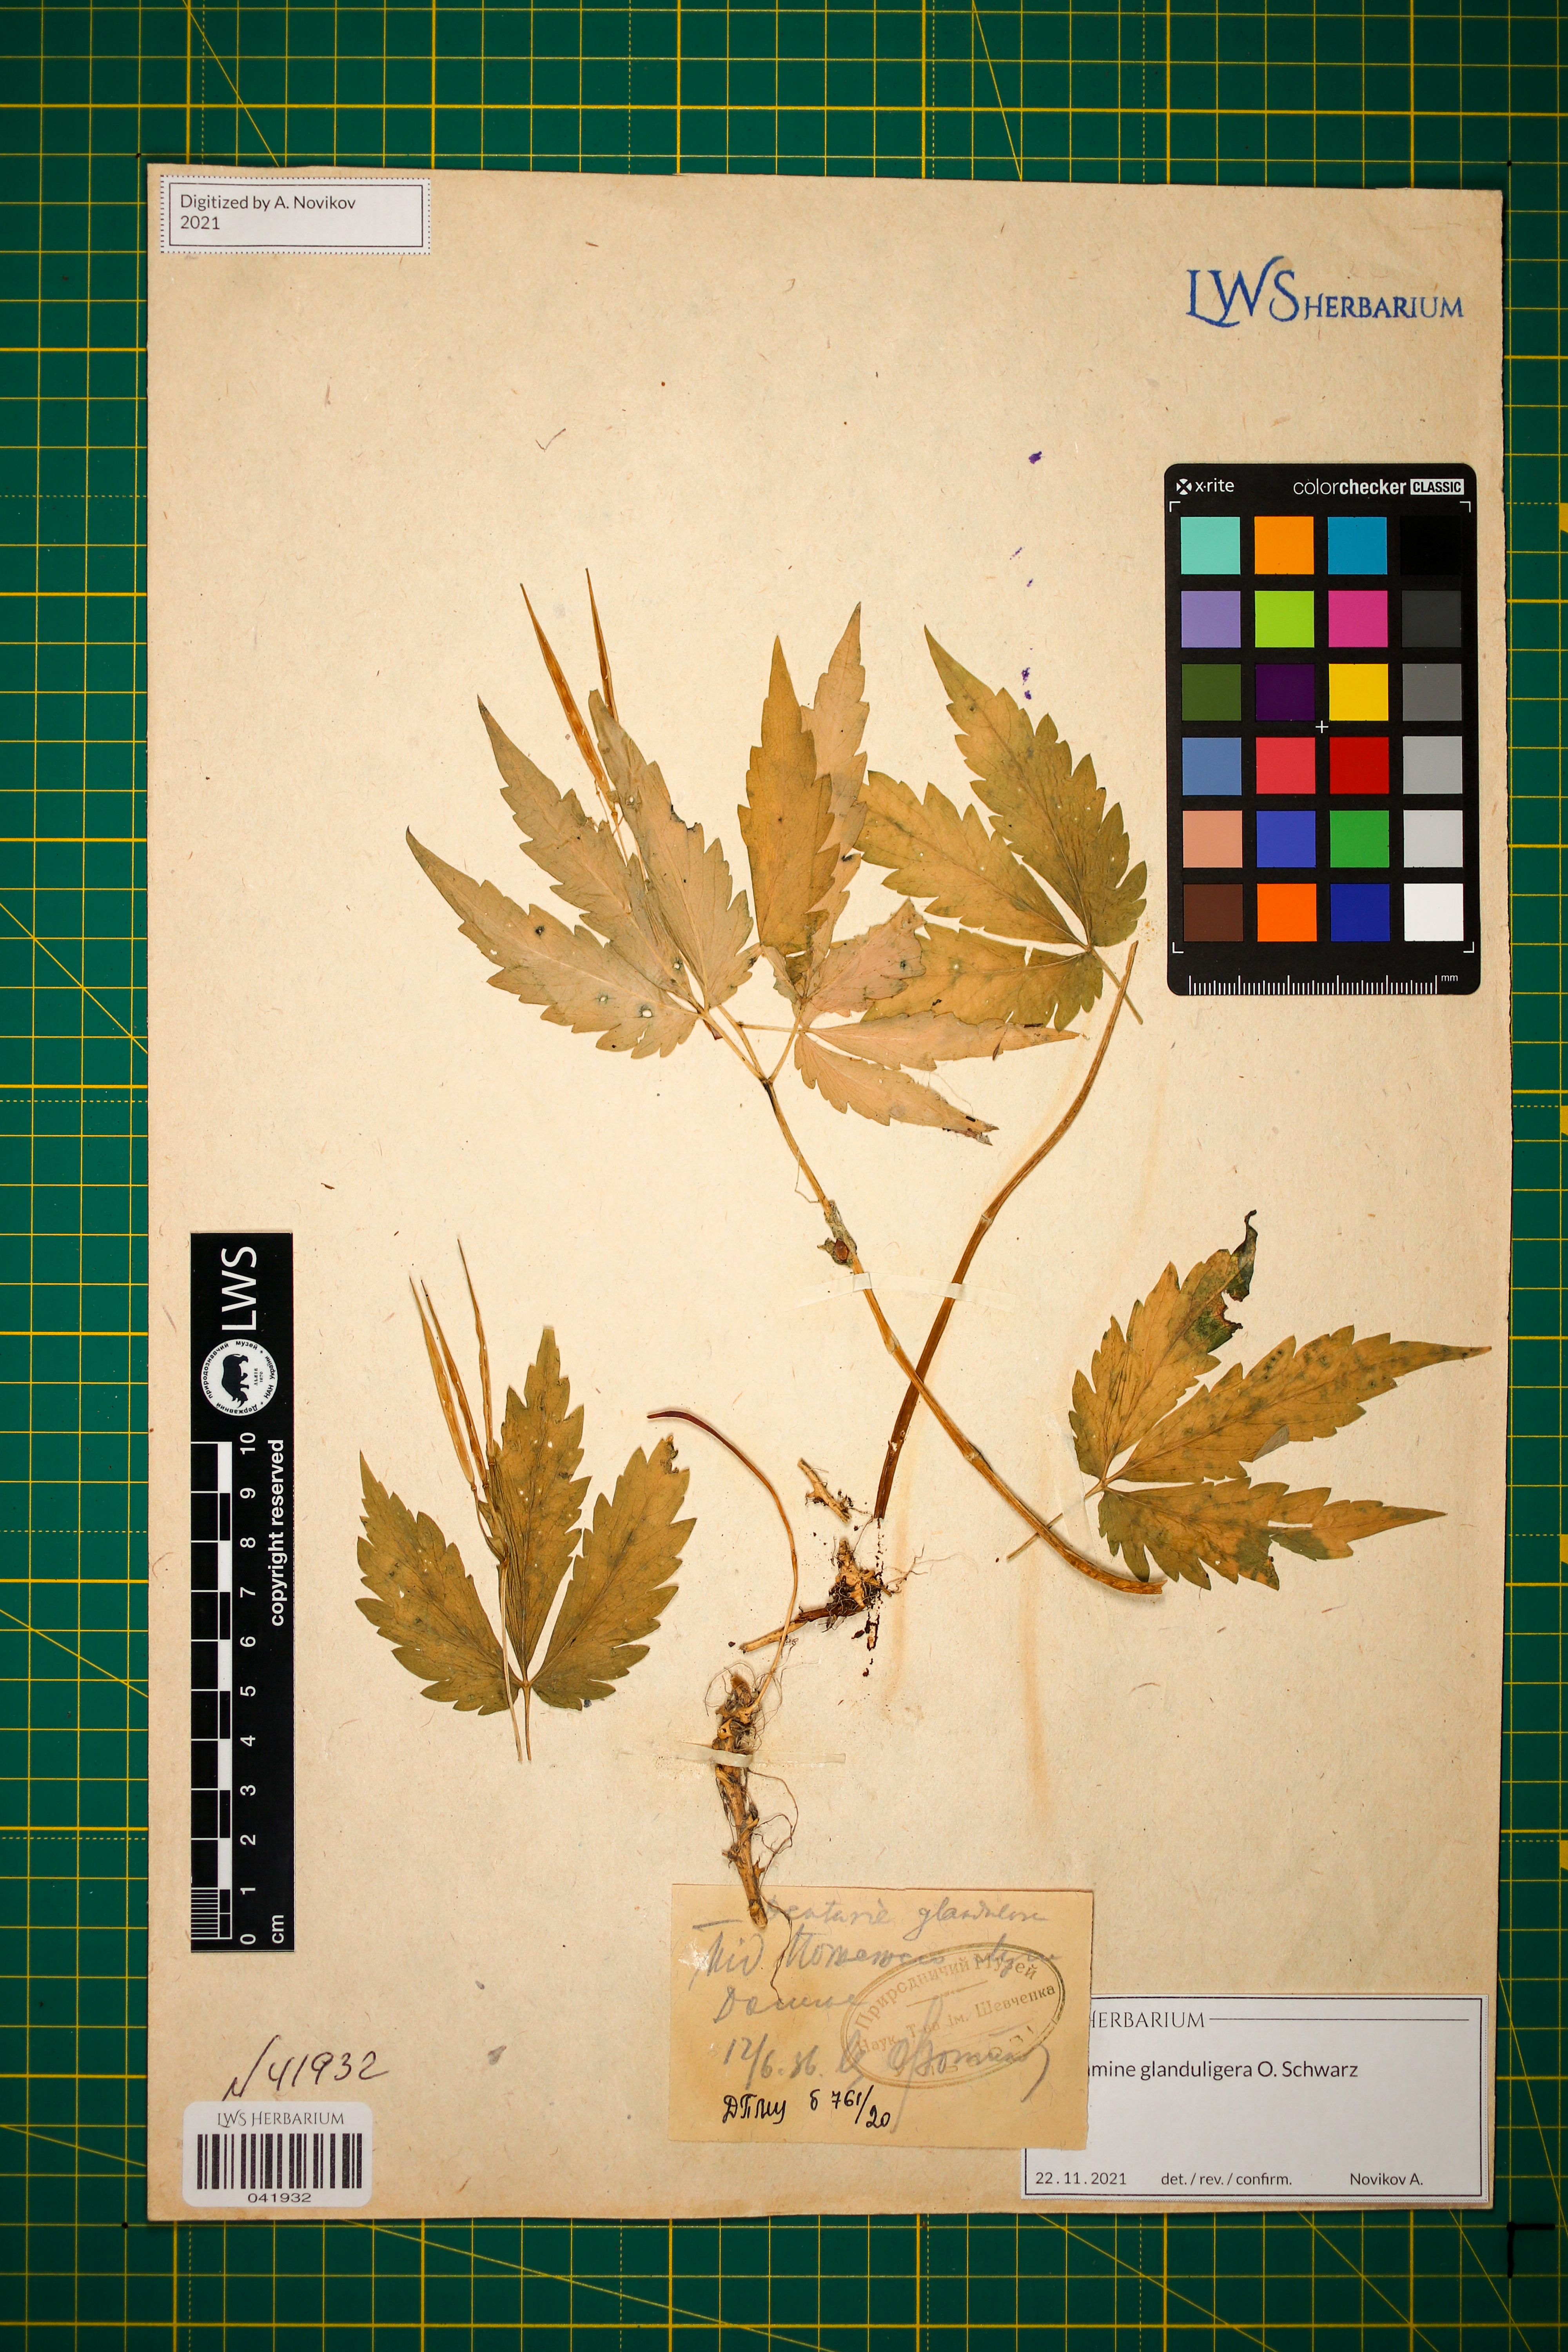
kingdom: Plantae
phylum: Tracheophyta
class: Magnoliopsida
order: Brassicales
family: Brassicaceae
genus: Cardamine
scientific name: Cardamine glanduligera
